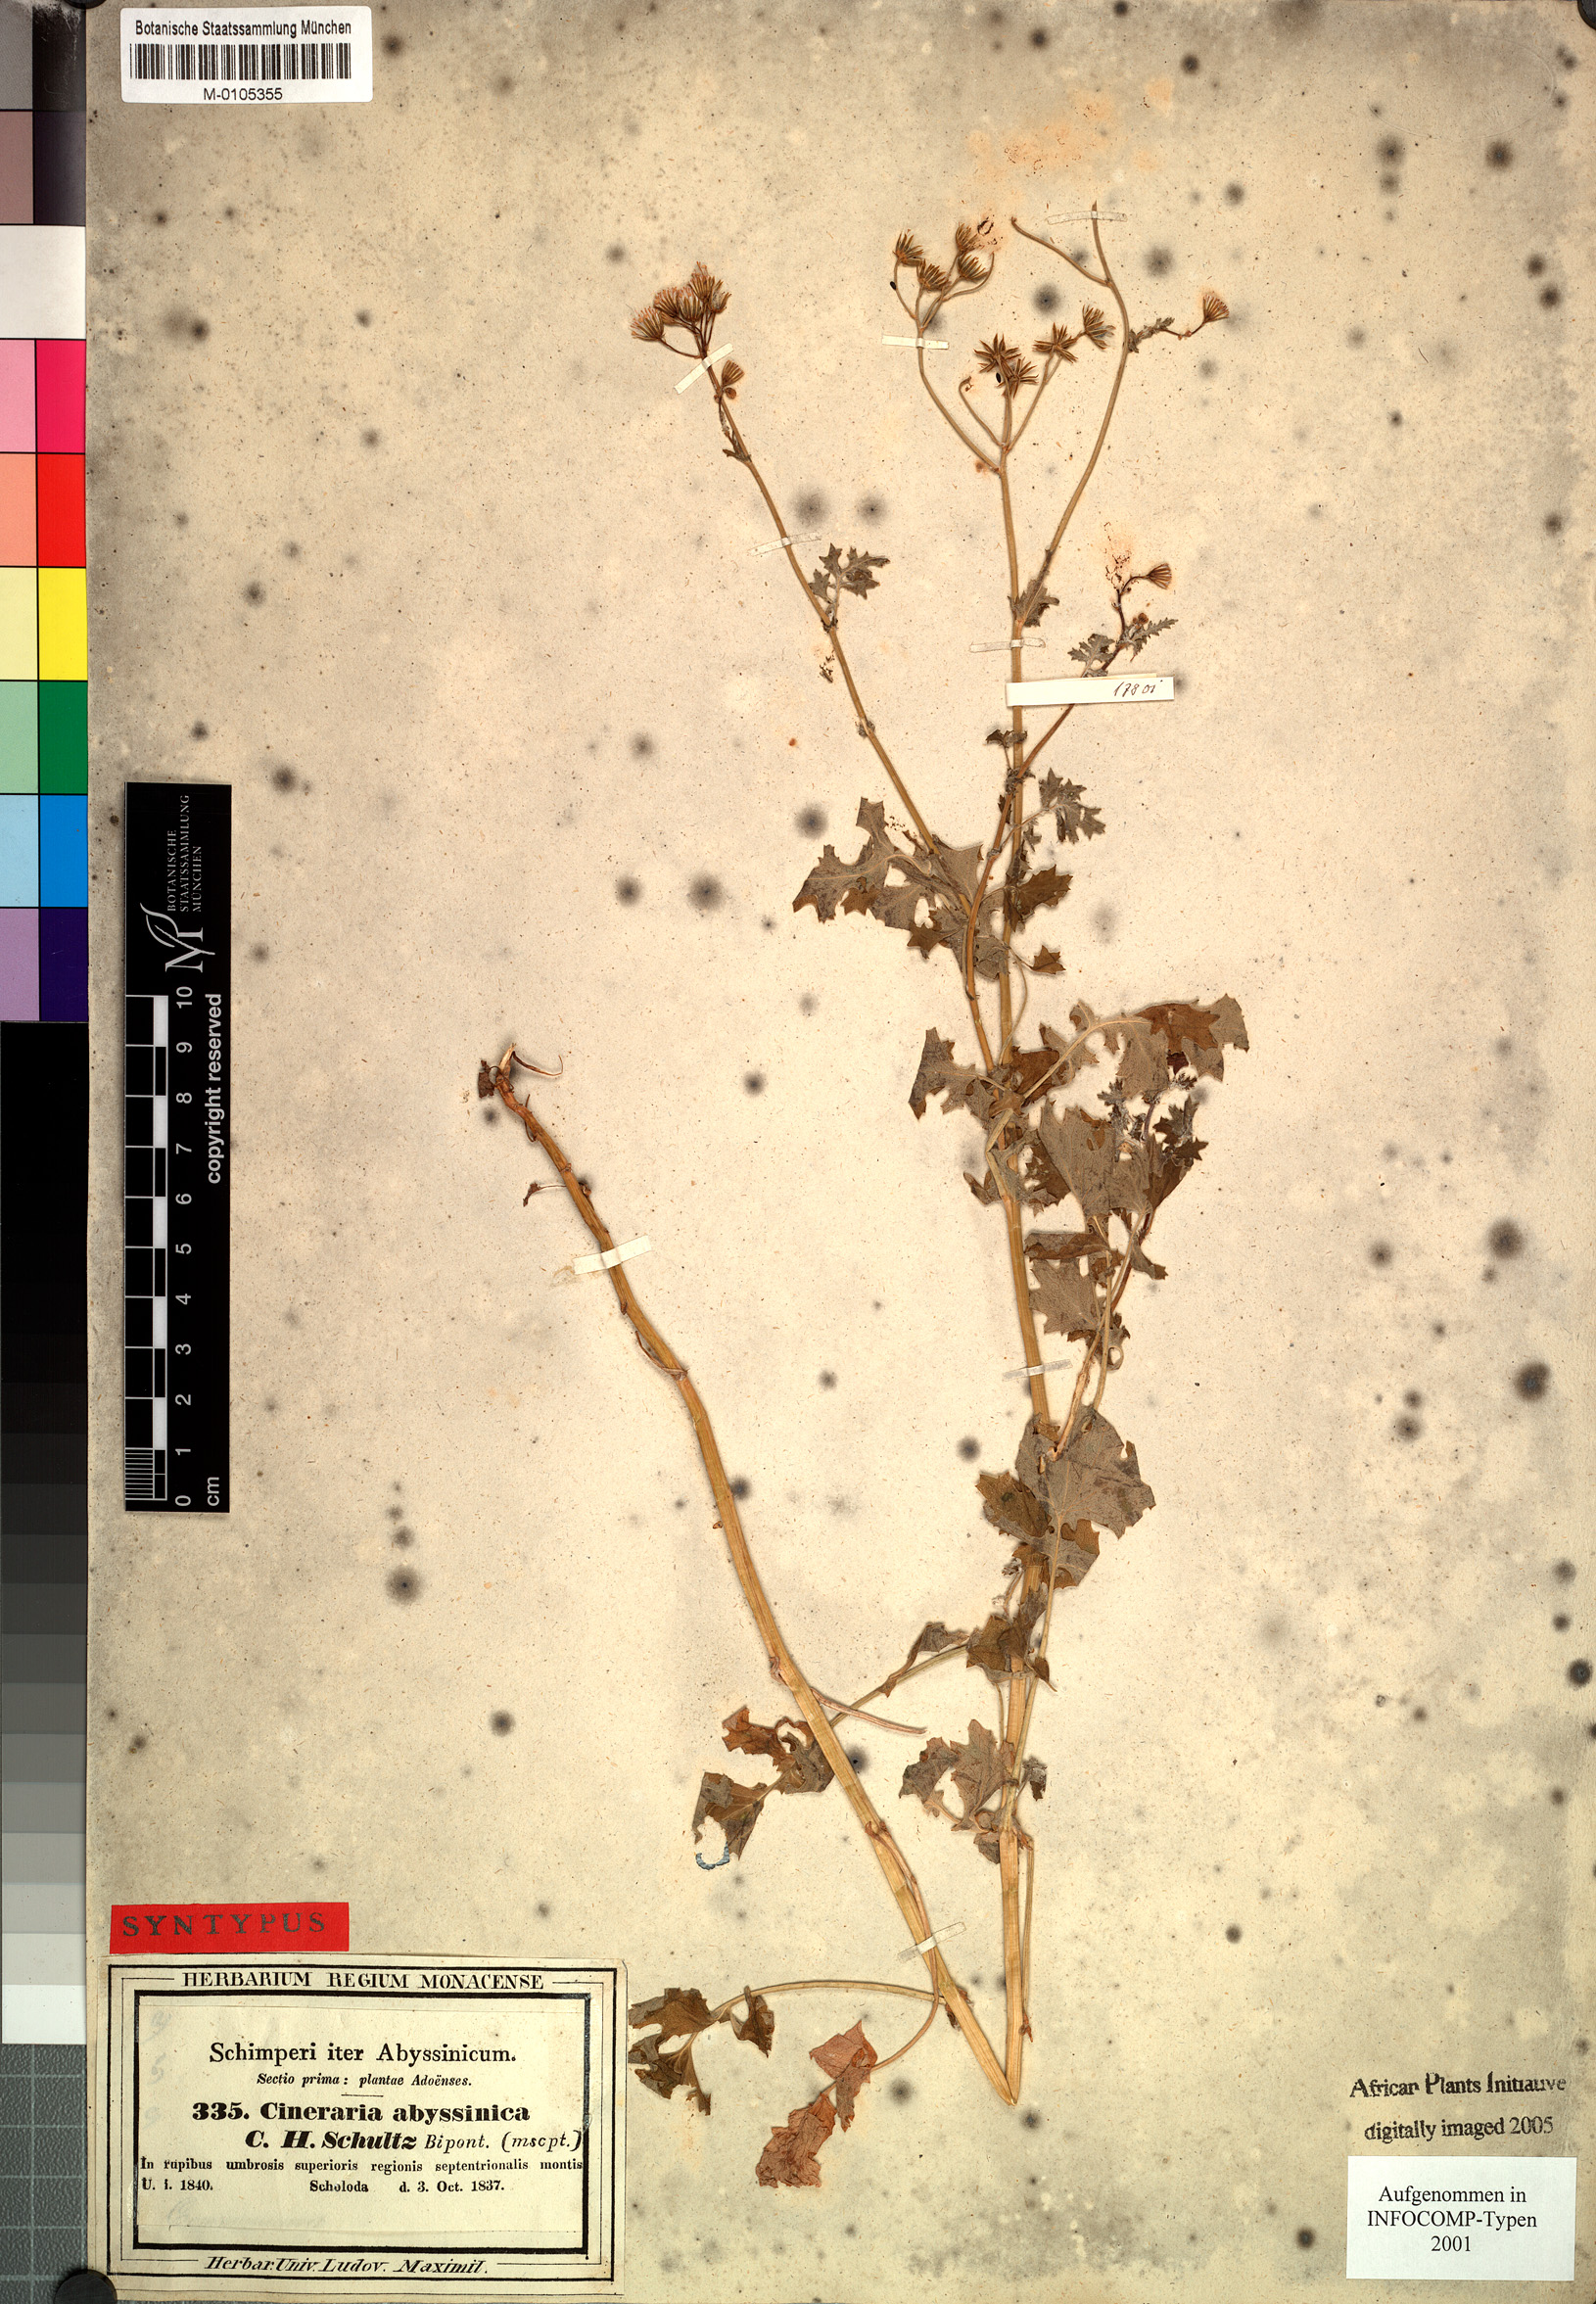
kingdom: Plantae
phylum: Tracheophyta
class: Magnoliopsida
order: Asterales
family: Asteraceae
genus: Cineraria
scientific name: Cineraria abyssinica
